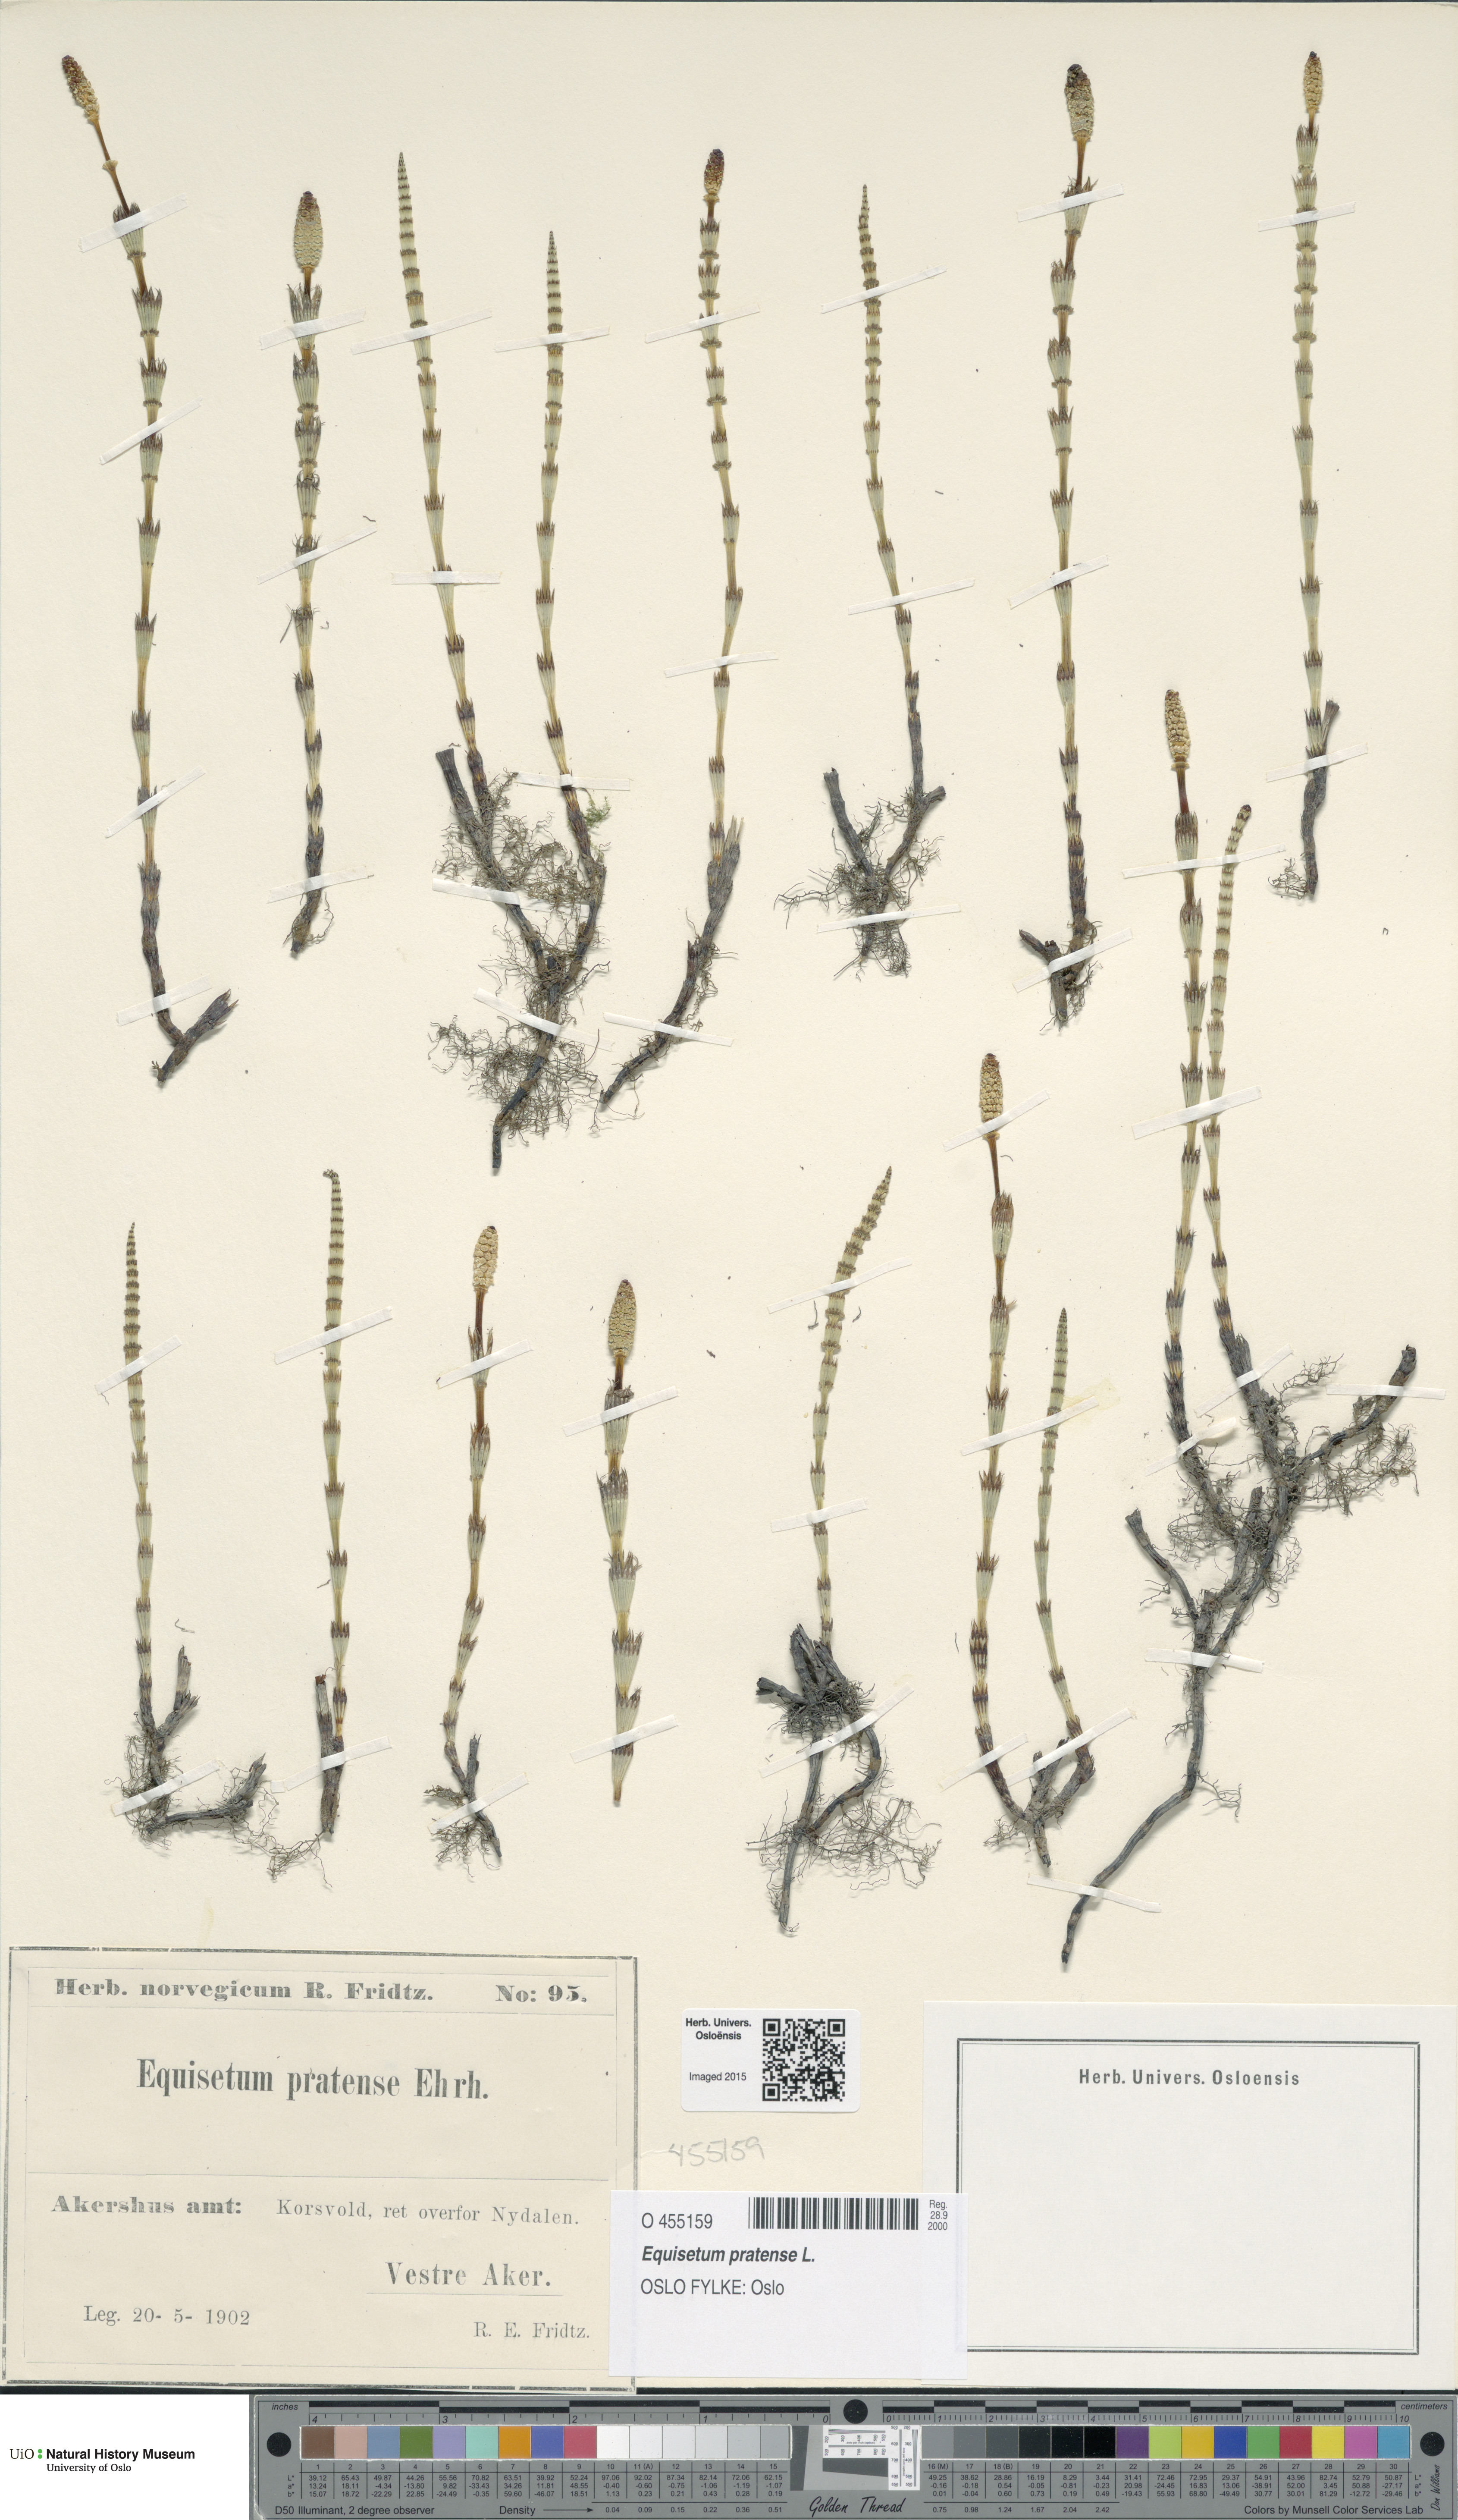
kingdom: Plantae
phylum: Tracheophyta
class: Polypodiopsida
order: Equisetales
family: Equisetaceae
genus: Equisetum
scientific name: Equisetum pratense
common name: Meadow horsetail
